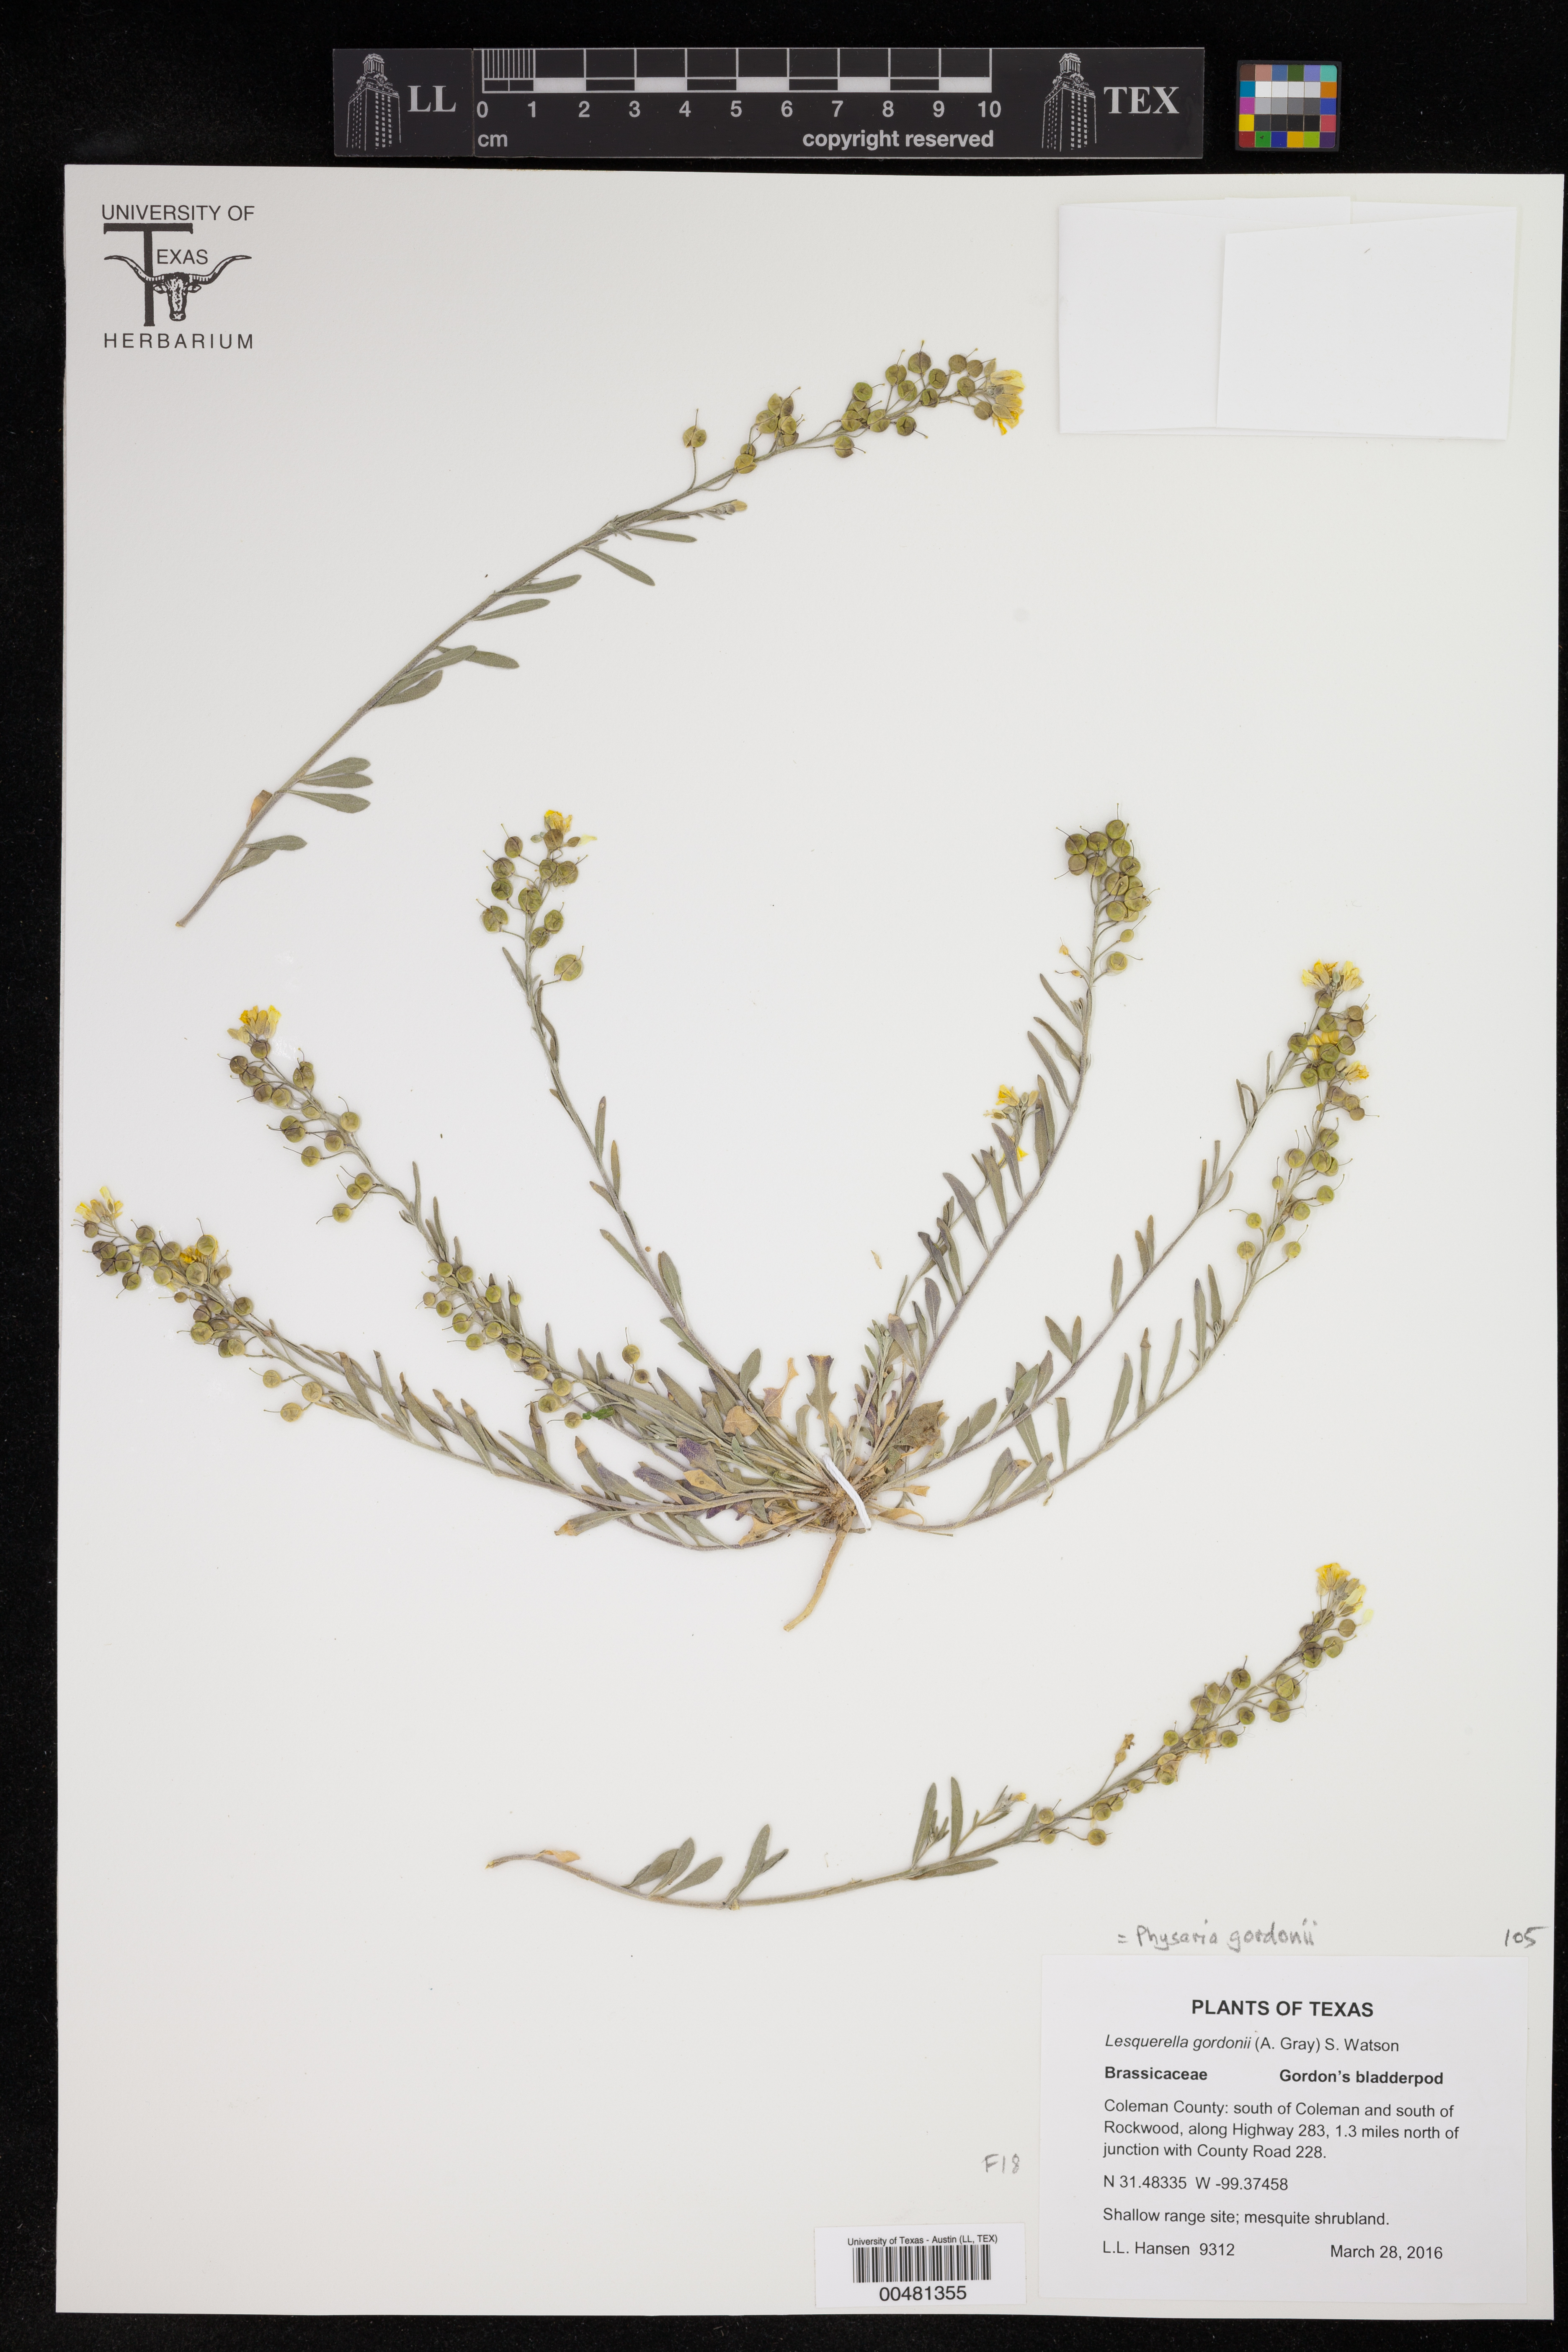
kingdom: Plantae
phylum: Tracheophyta
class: Magnoliopsida
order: Brassicales
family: Brassicaceae
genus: Physaria
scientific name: Physaria gordonii
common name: Gordon's bladderpod
